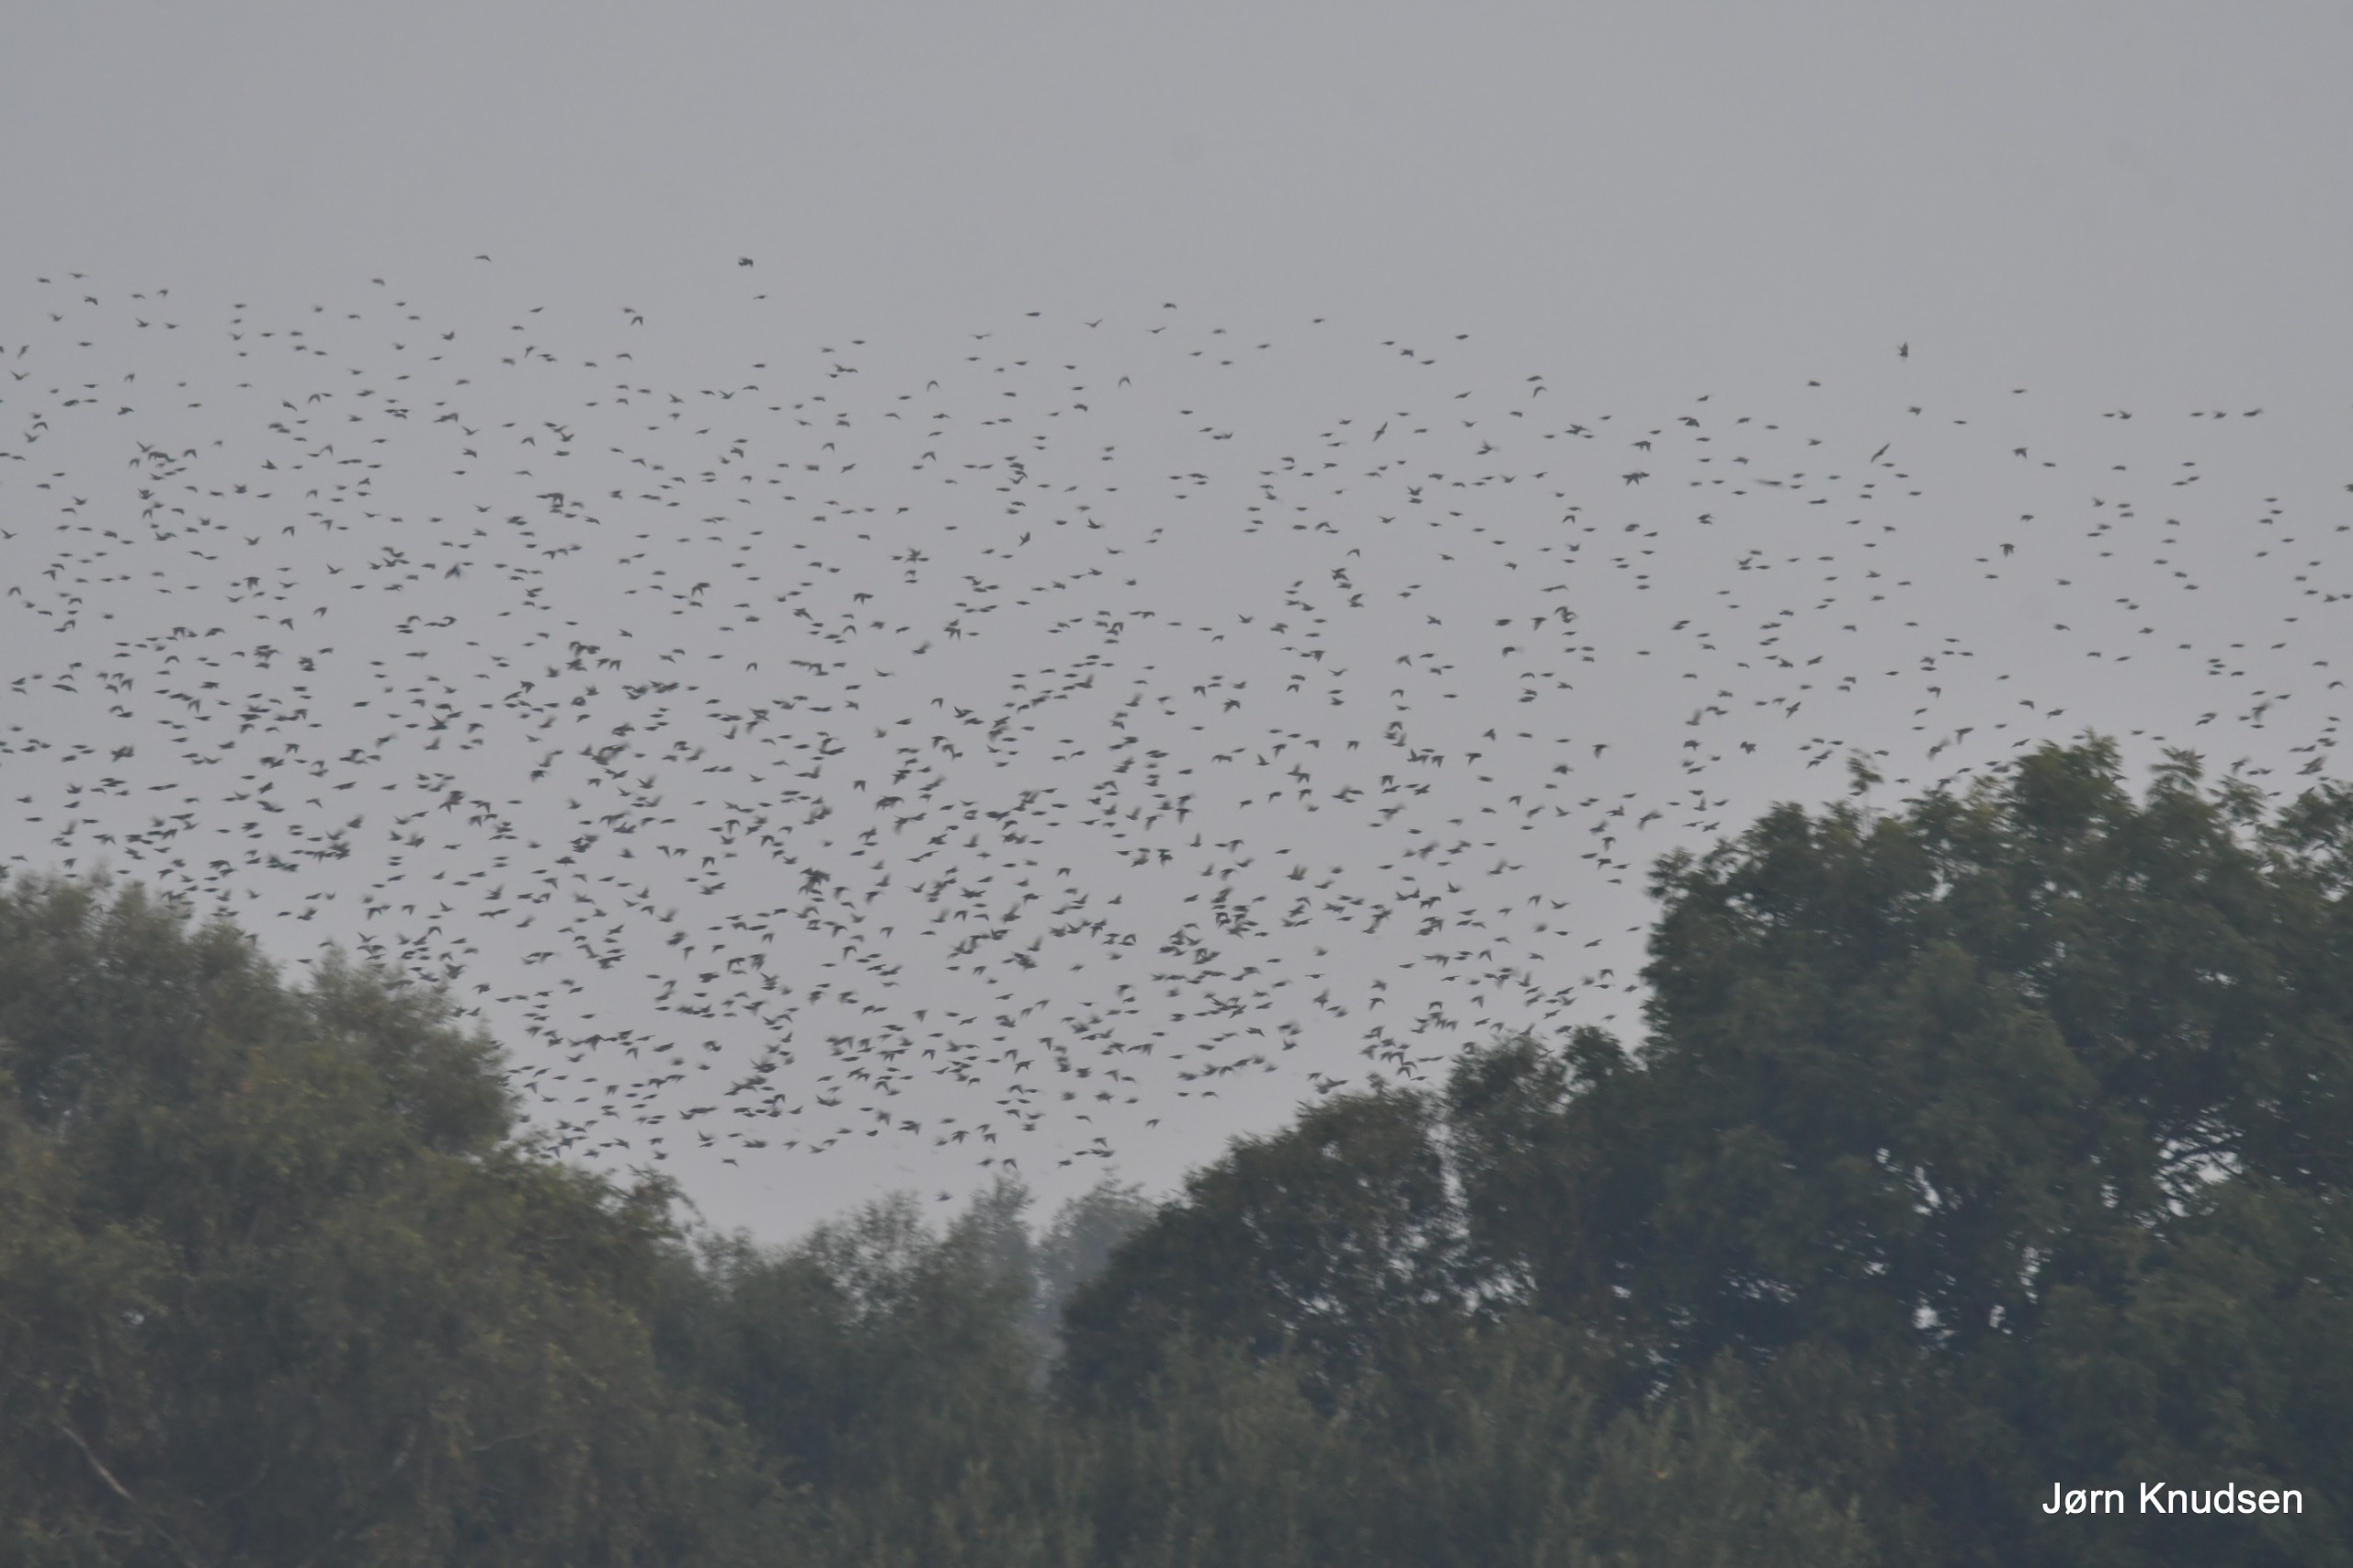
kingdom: Animalia
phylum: Chordata
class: Aves
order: Passeriformes
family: Sturnidae
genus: Sturnus
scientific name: Sturnus vulgaris
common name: Stær
